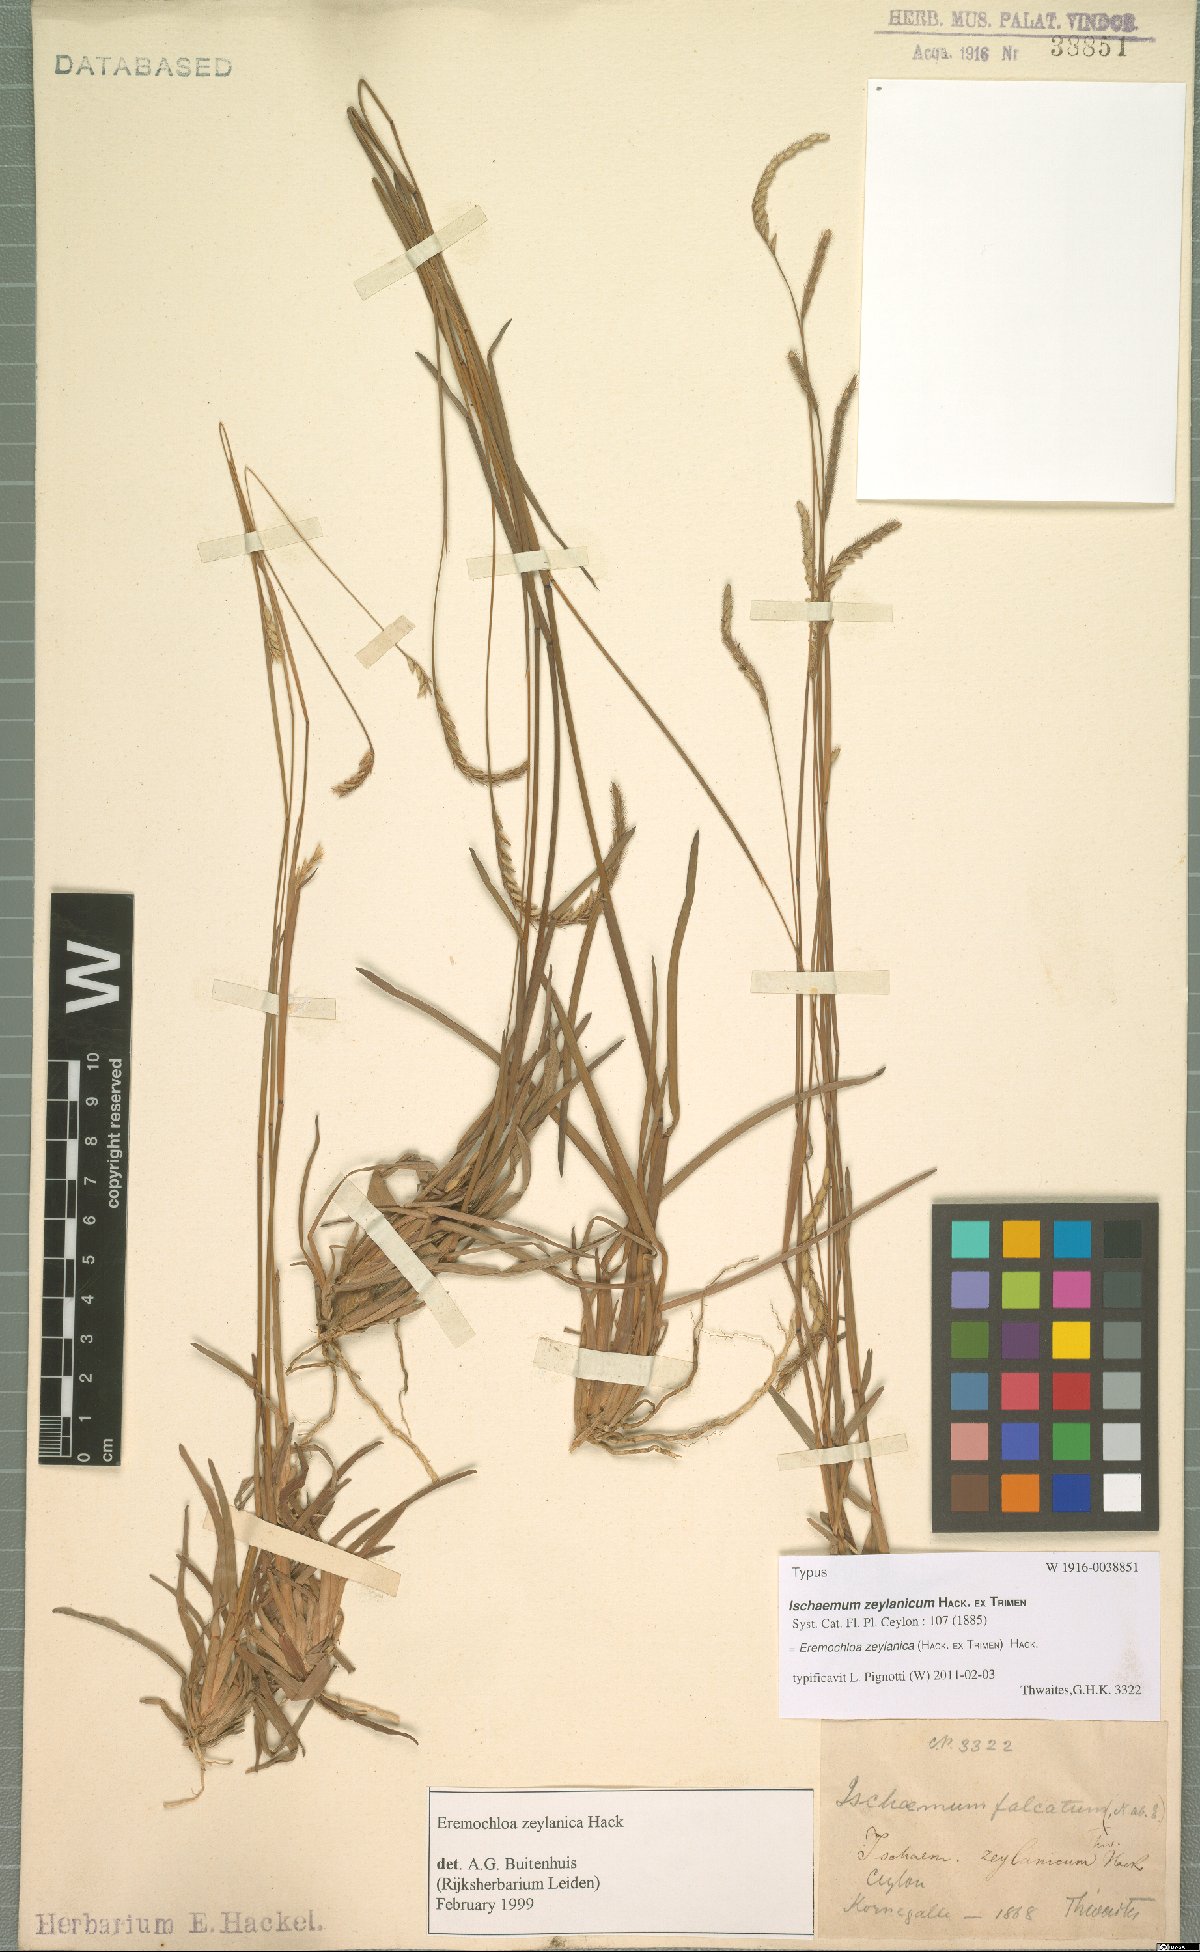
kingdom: Plantae
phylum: Tracheophyta
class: Liliopsida
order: Poales
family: Poaceae
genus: Eremochloa
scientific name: Eremochloa zeylanica
